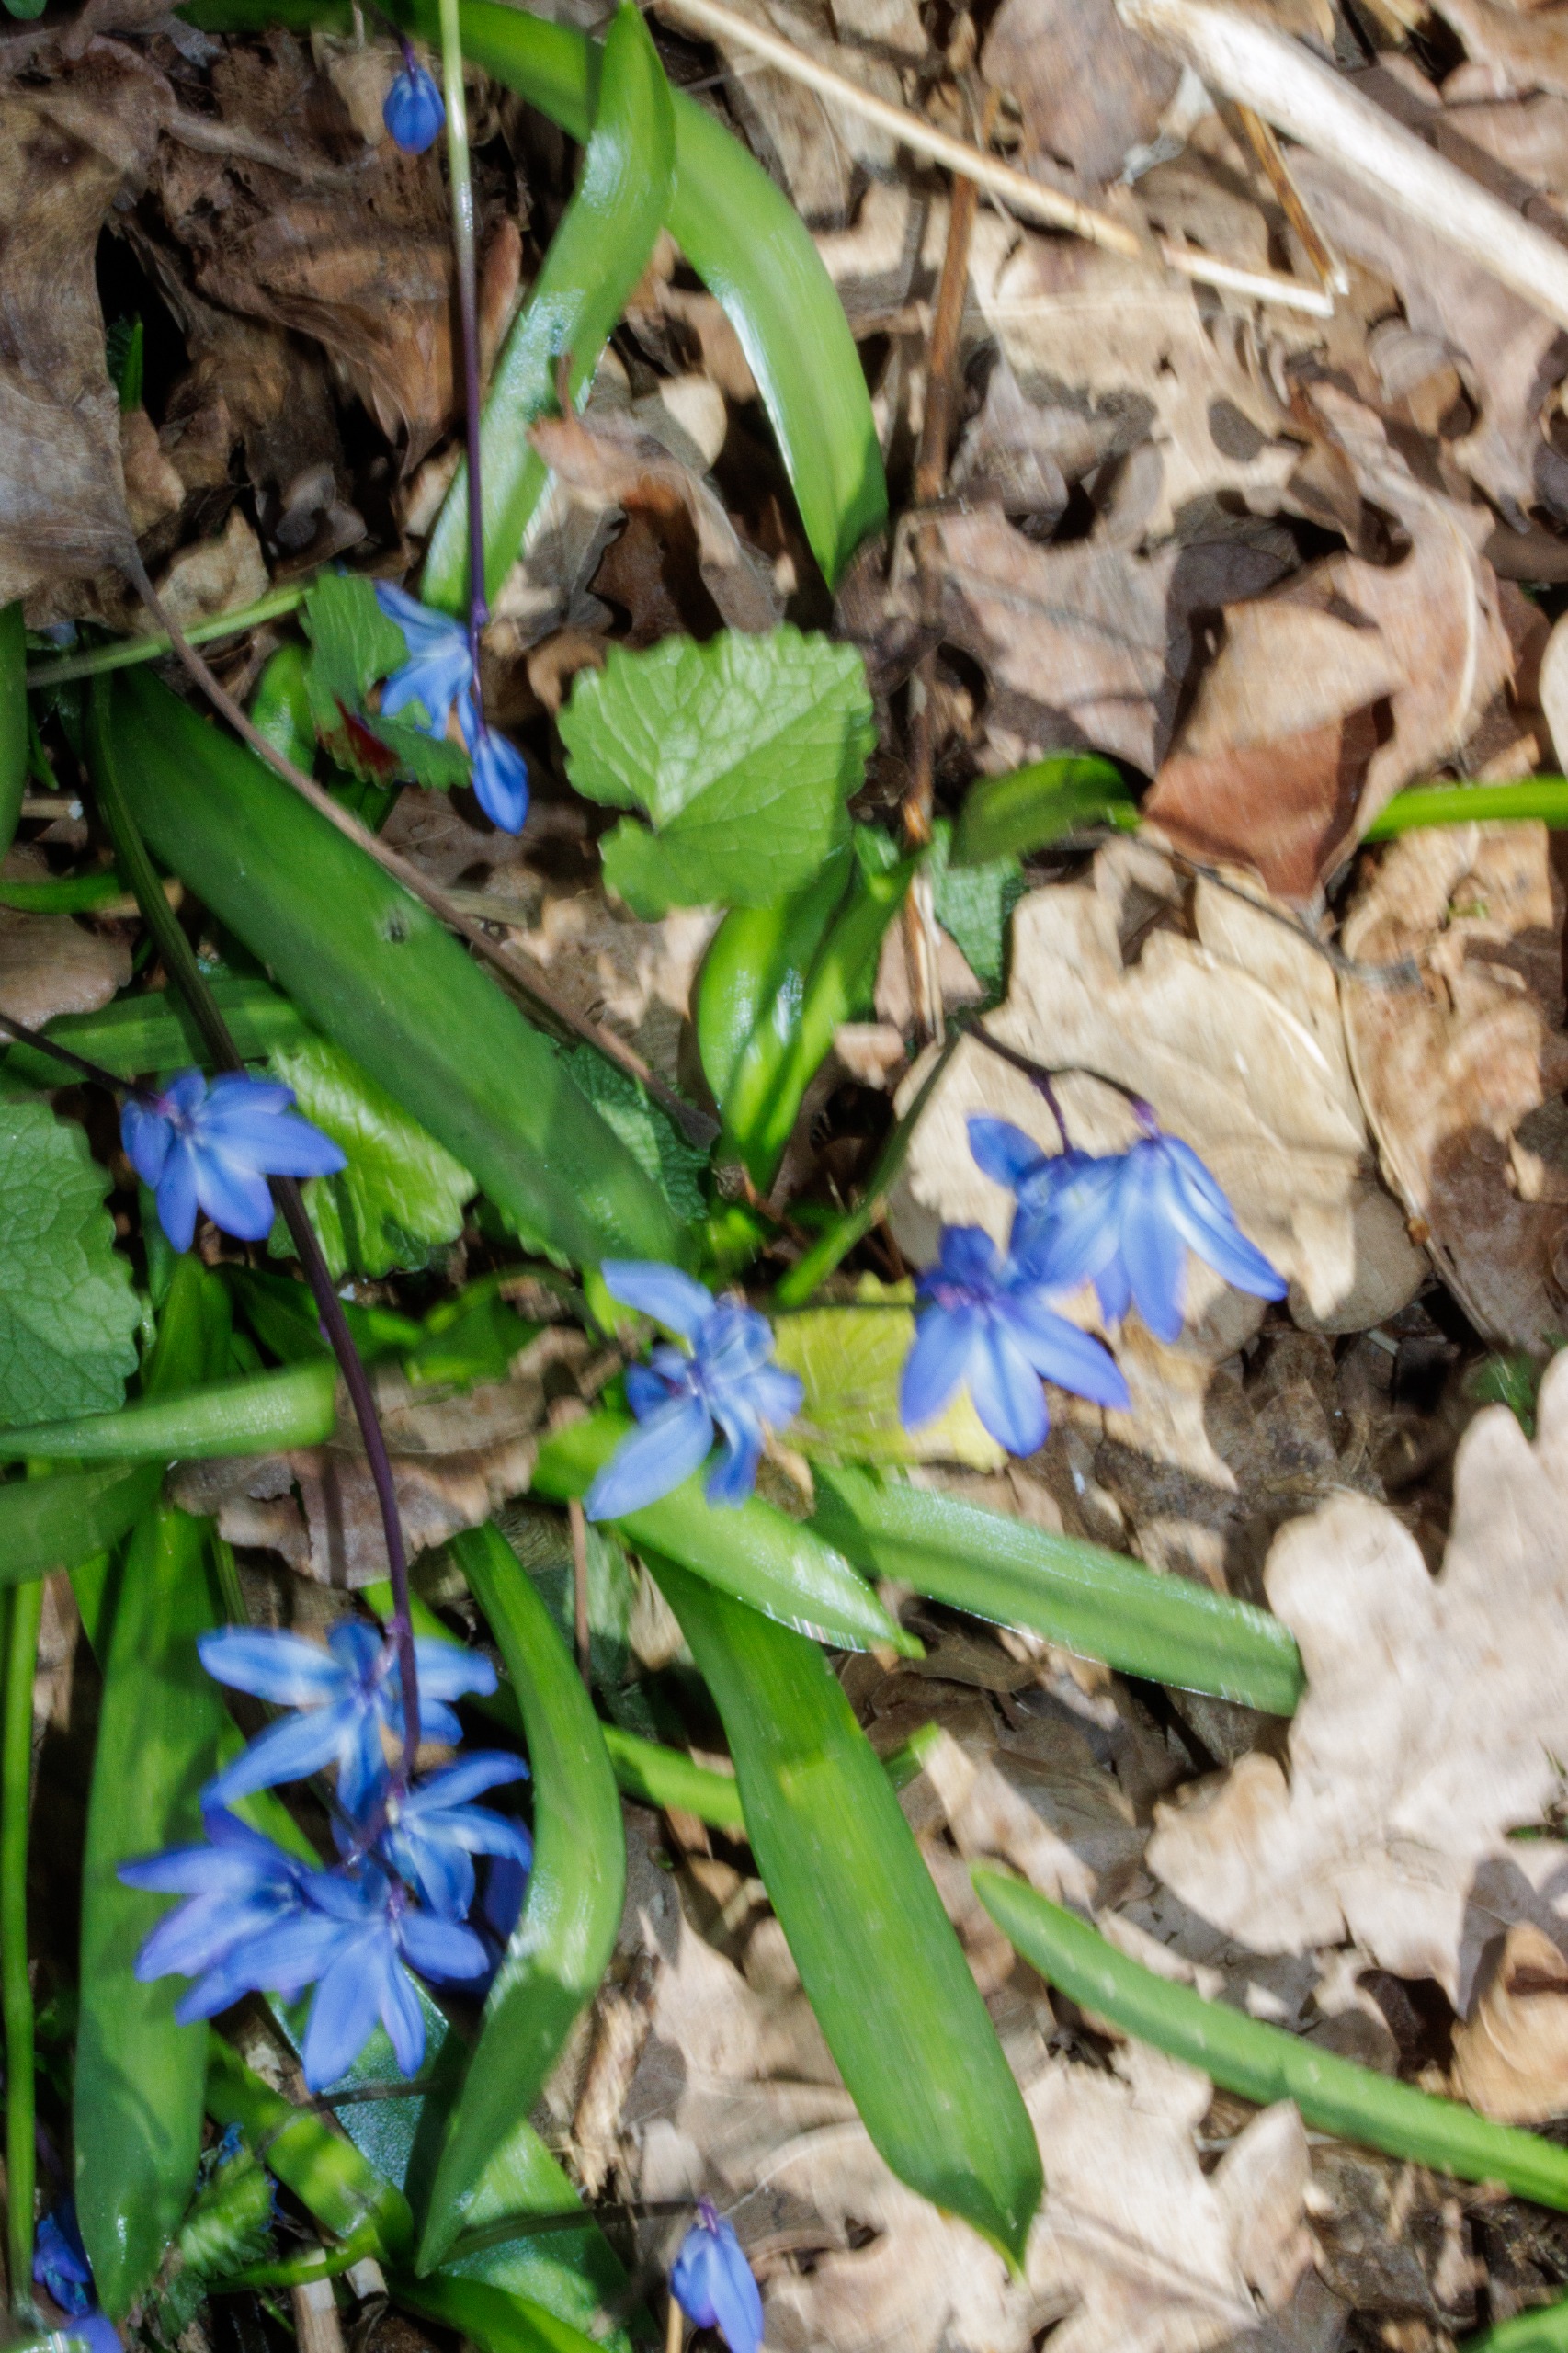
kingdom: Plantae
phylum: Tracheophyta
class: Liliopsida
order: Asparagales
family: Asparagaceae
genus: Scilla
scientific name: Scilla siberica
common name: Russisk skilla
